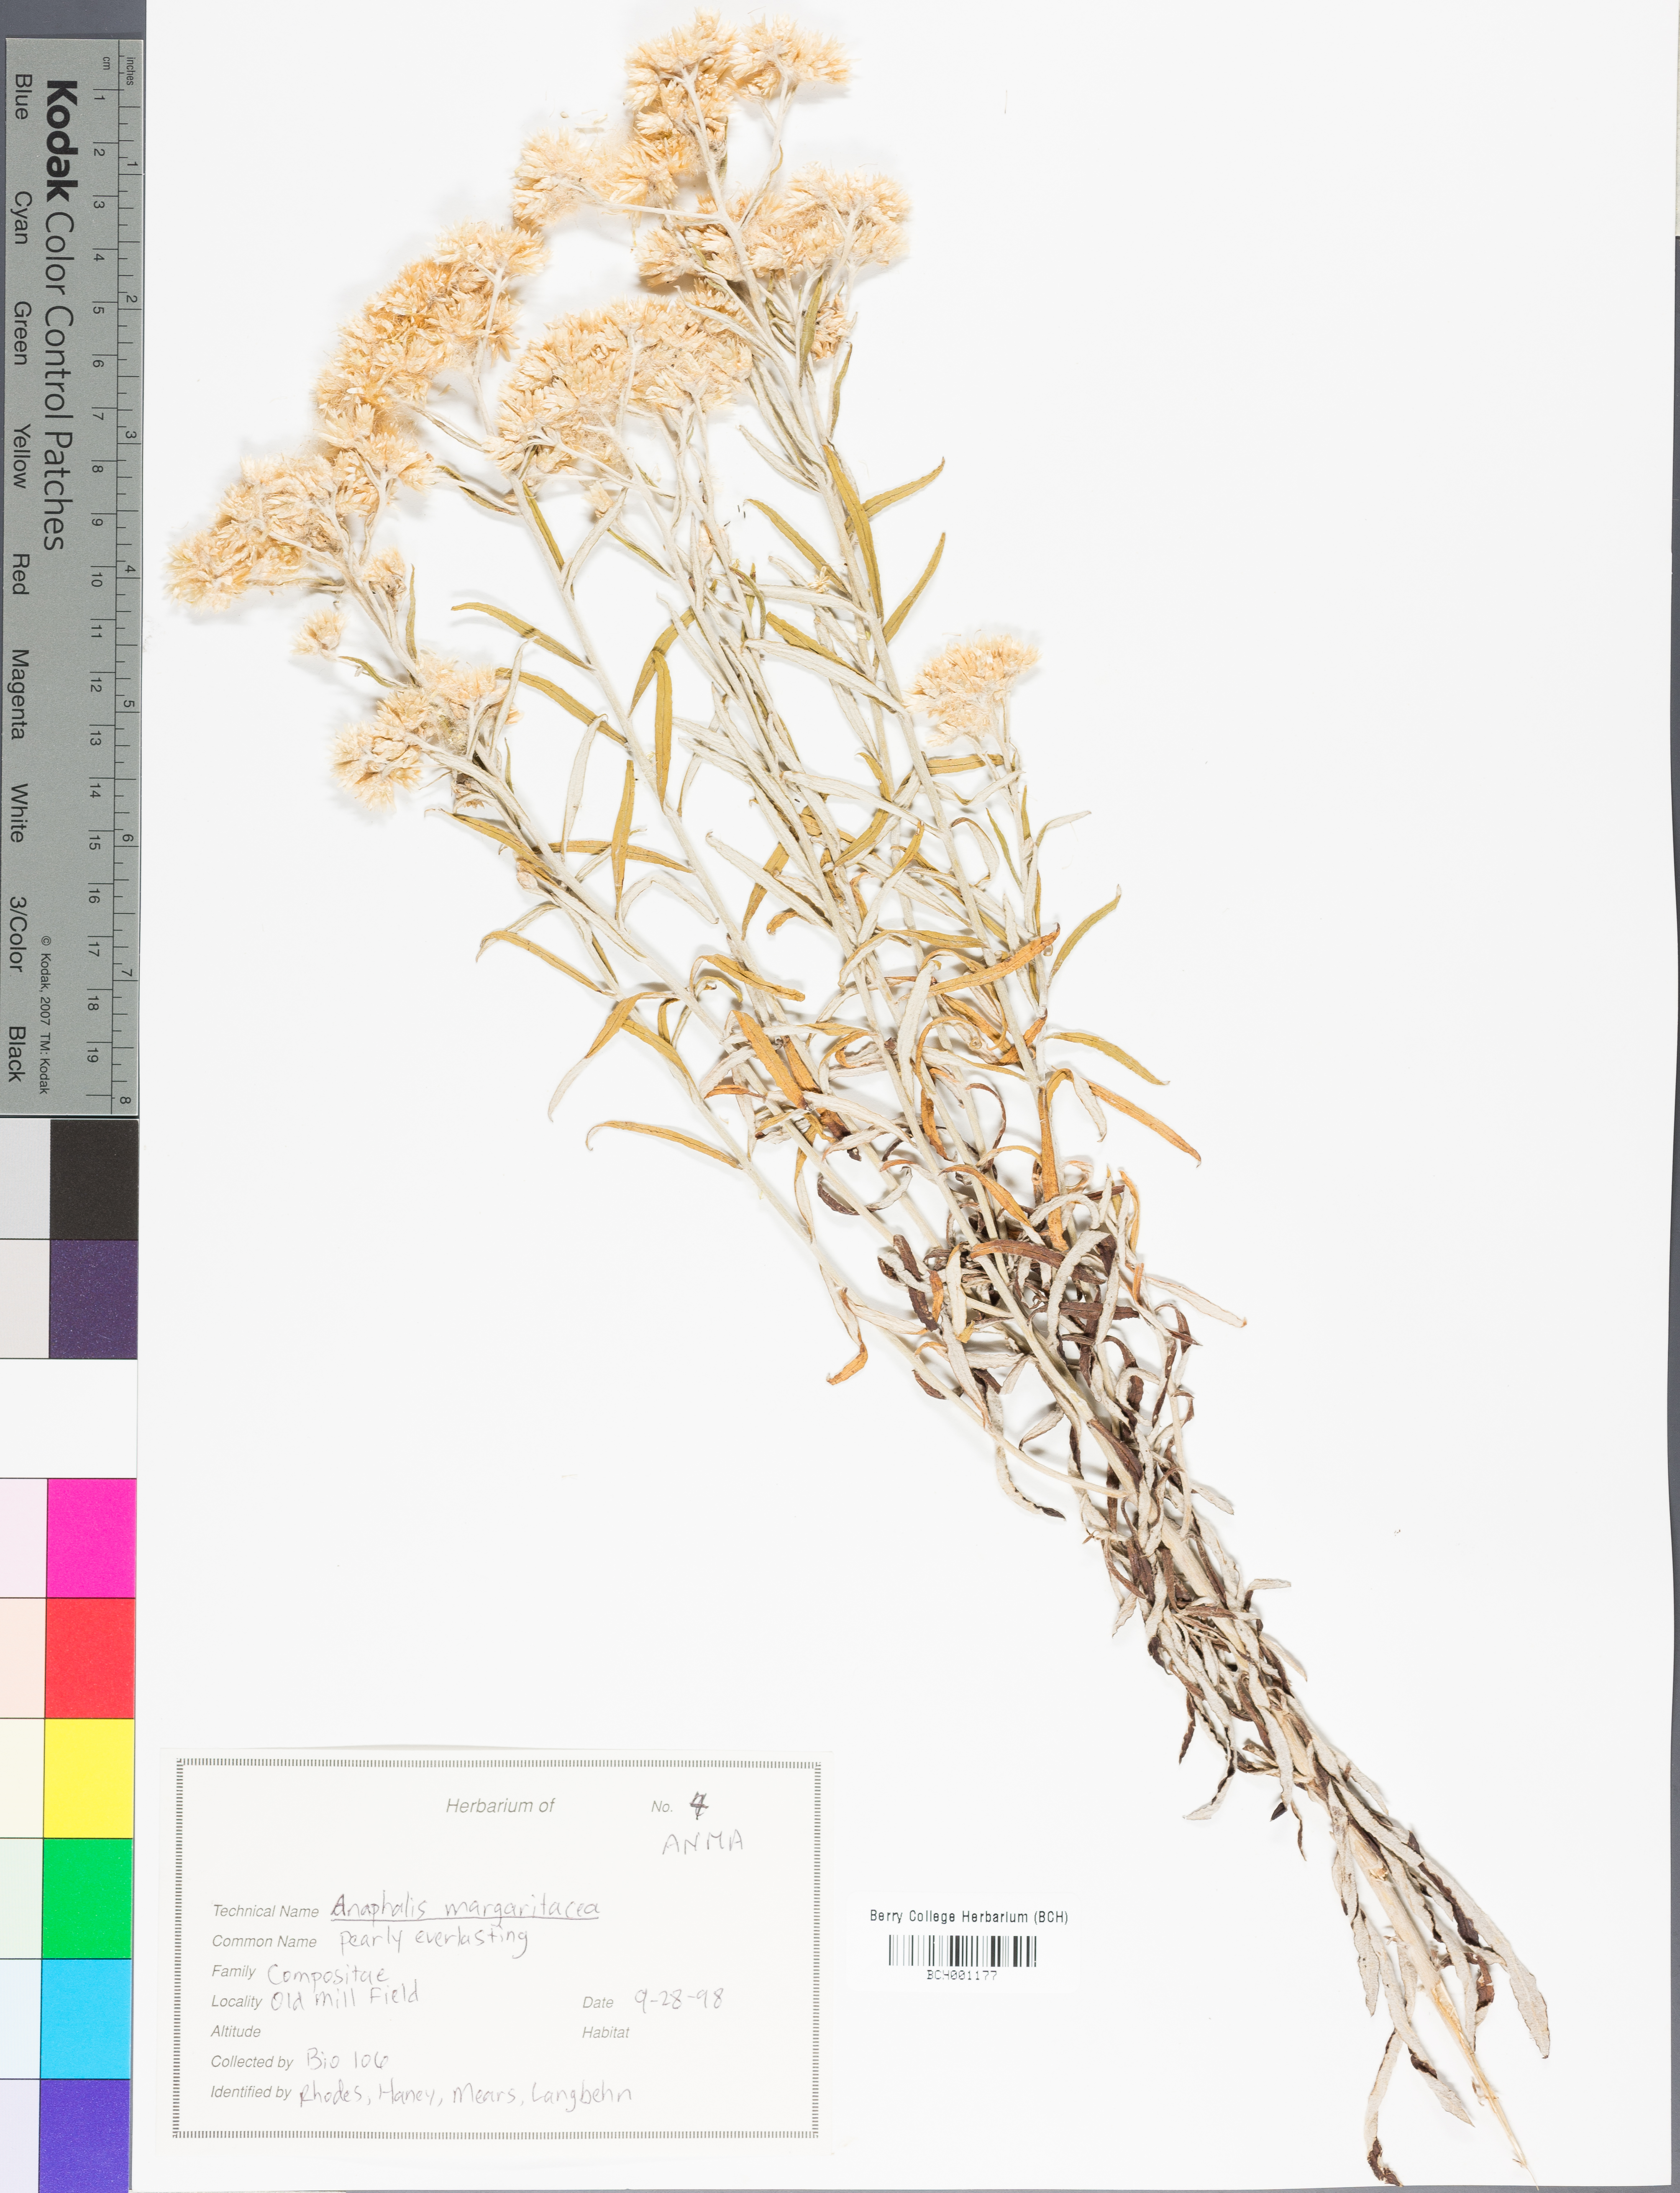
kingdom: Plantae
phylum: Tracheophyta
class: Magnoliopsida
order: Asterales
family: Asteraceae
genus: Anaphalis
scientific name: Anaphalis margaritacea
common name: Pearly everlasting
